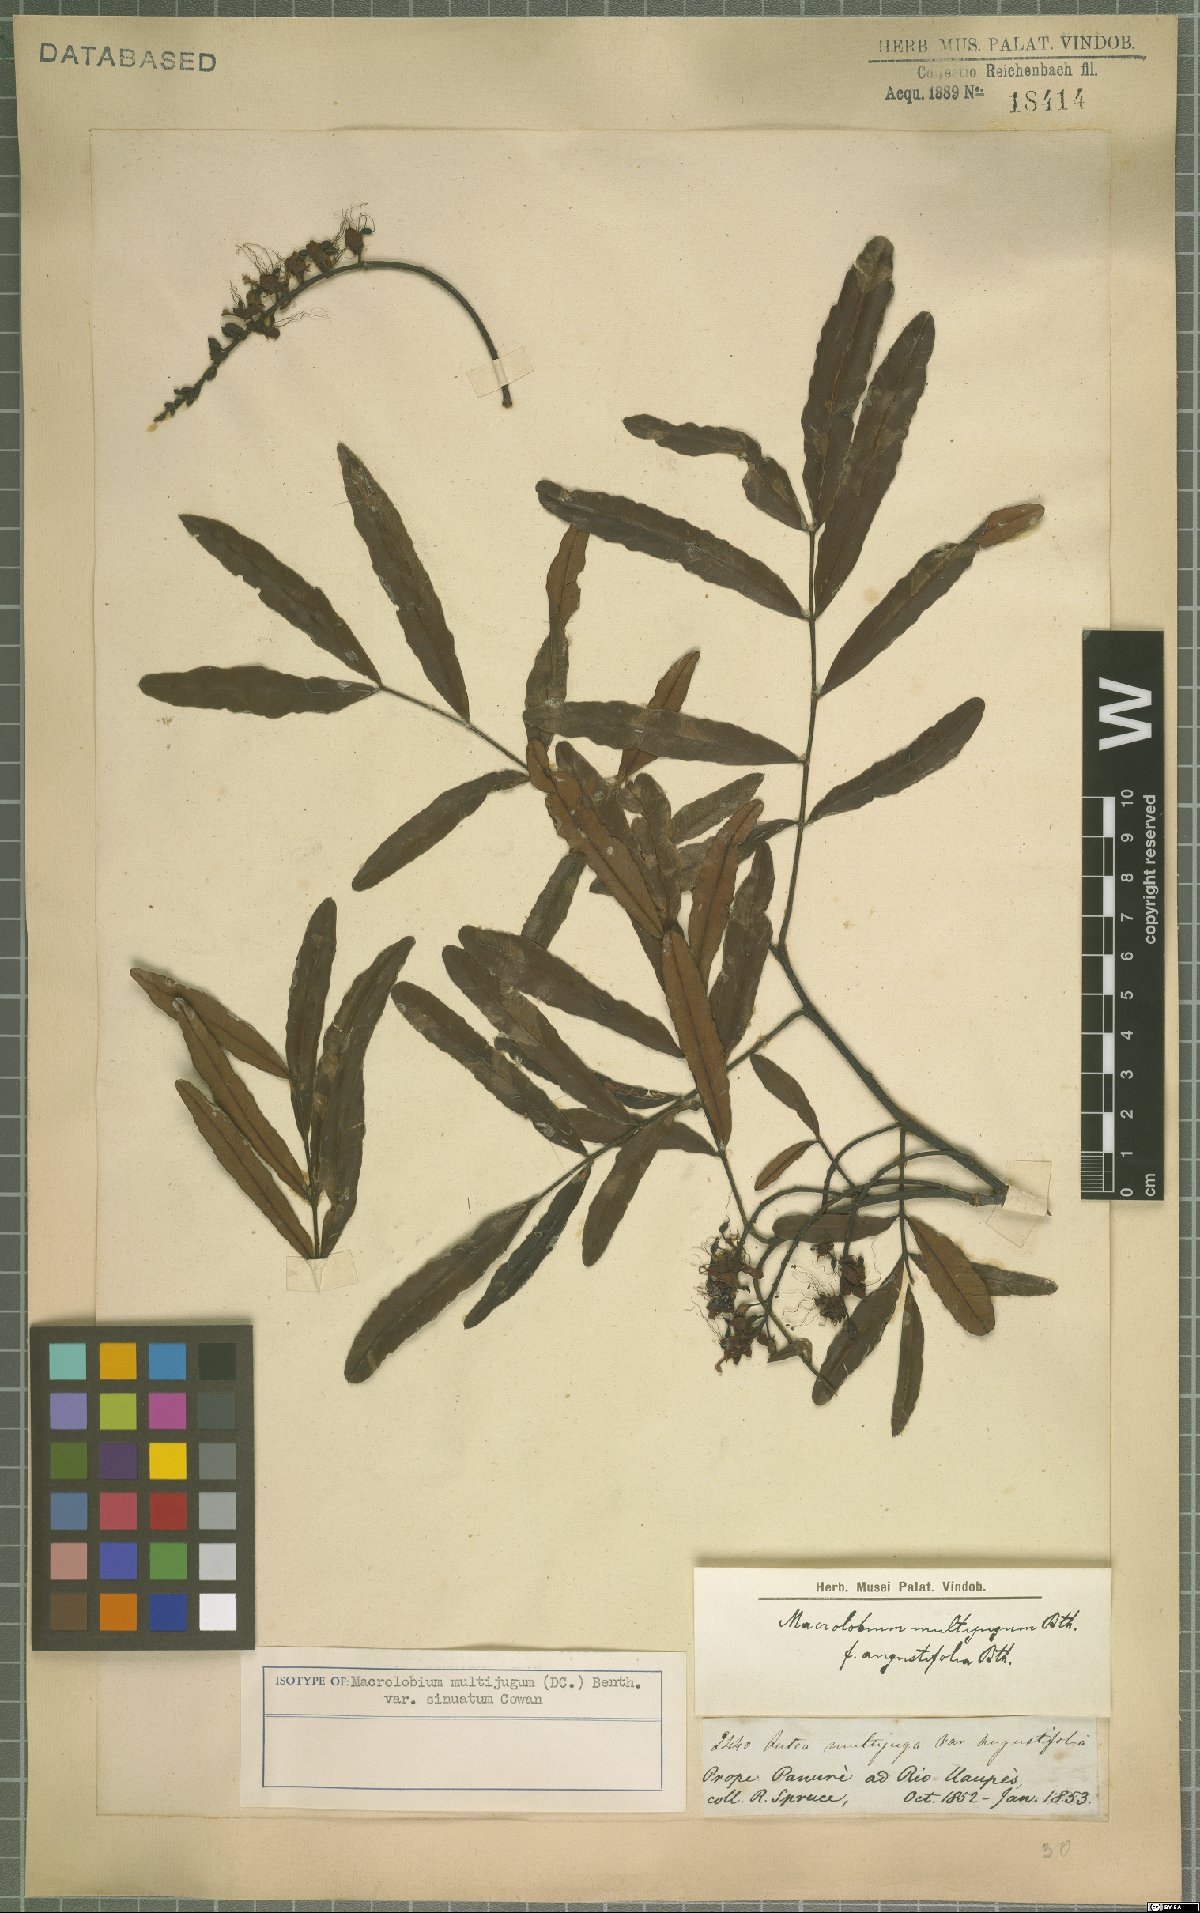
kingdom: Plantae
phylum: Tracheophyta
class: Magnoliopsida
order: Fabales
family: Fabaceae
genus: Macrolobium
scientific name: Macrolobium multijugum
